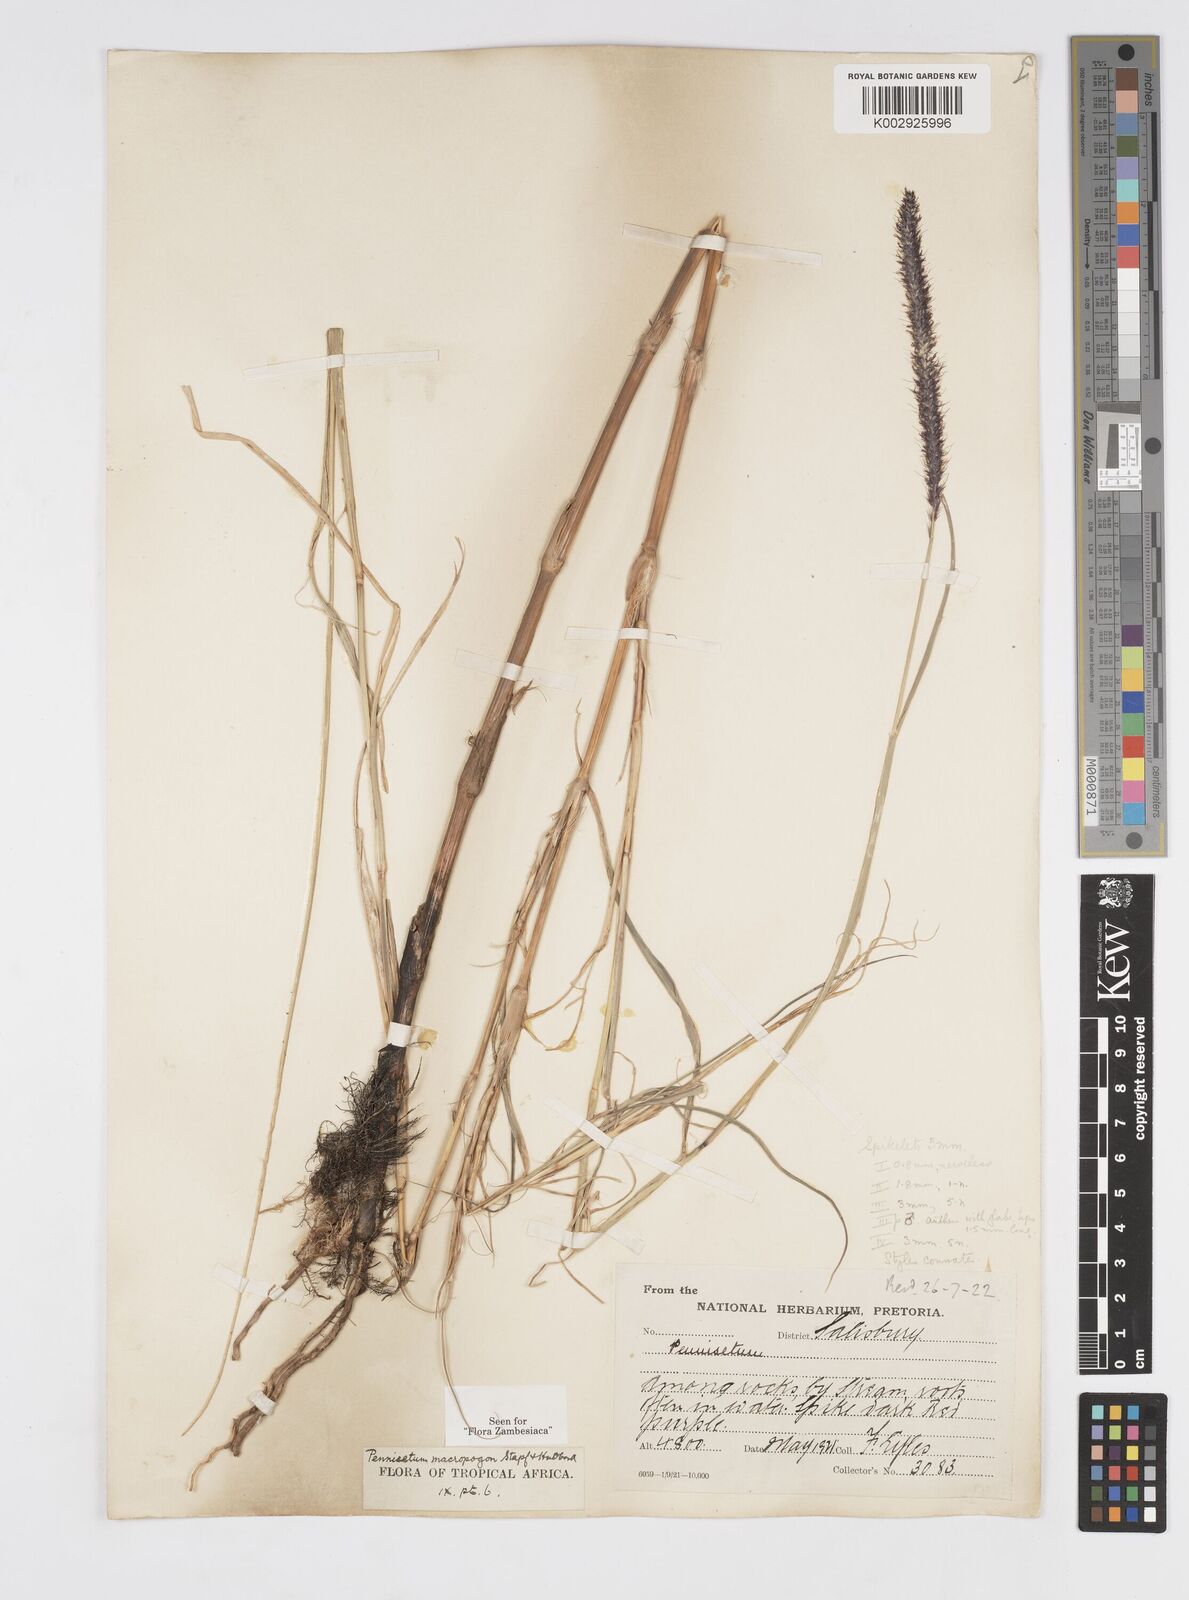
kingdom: Plantae
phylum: Tracheophyta
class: Liliopsida
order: Poales
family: Poaceae
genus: Cenchrus
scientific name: Cenchrus caudatus
